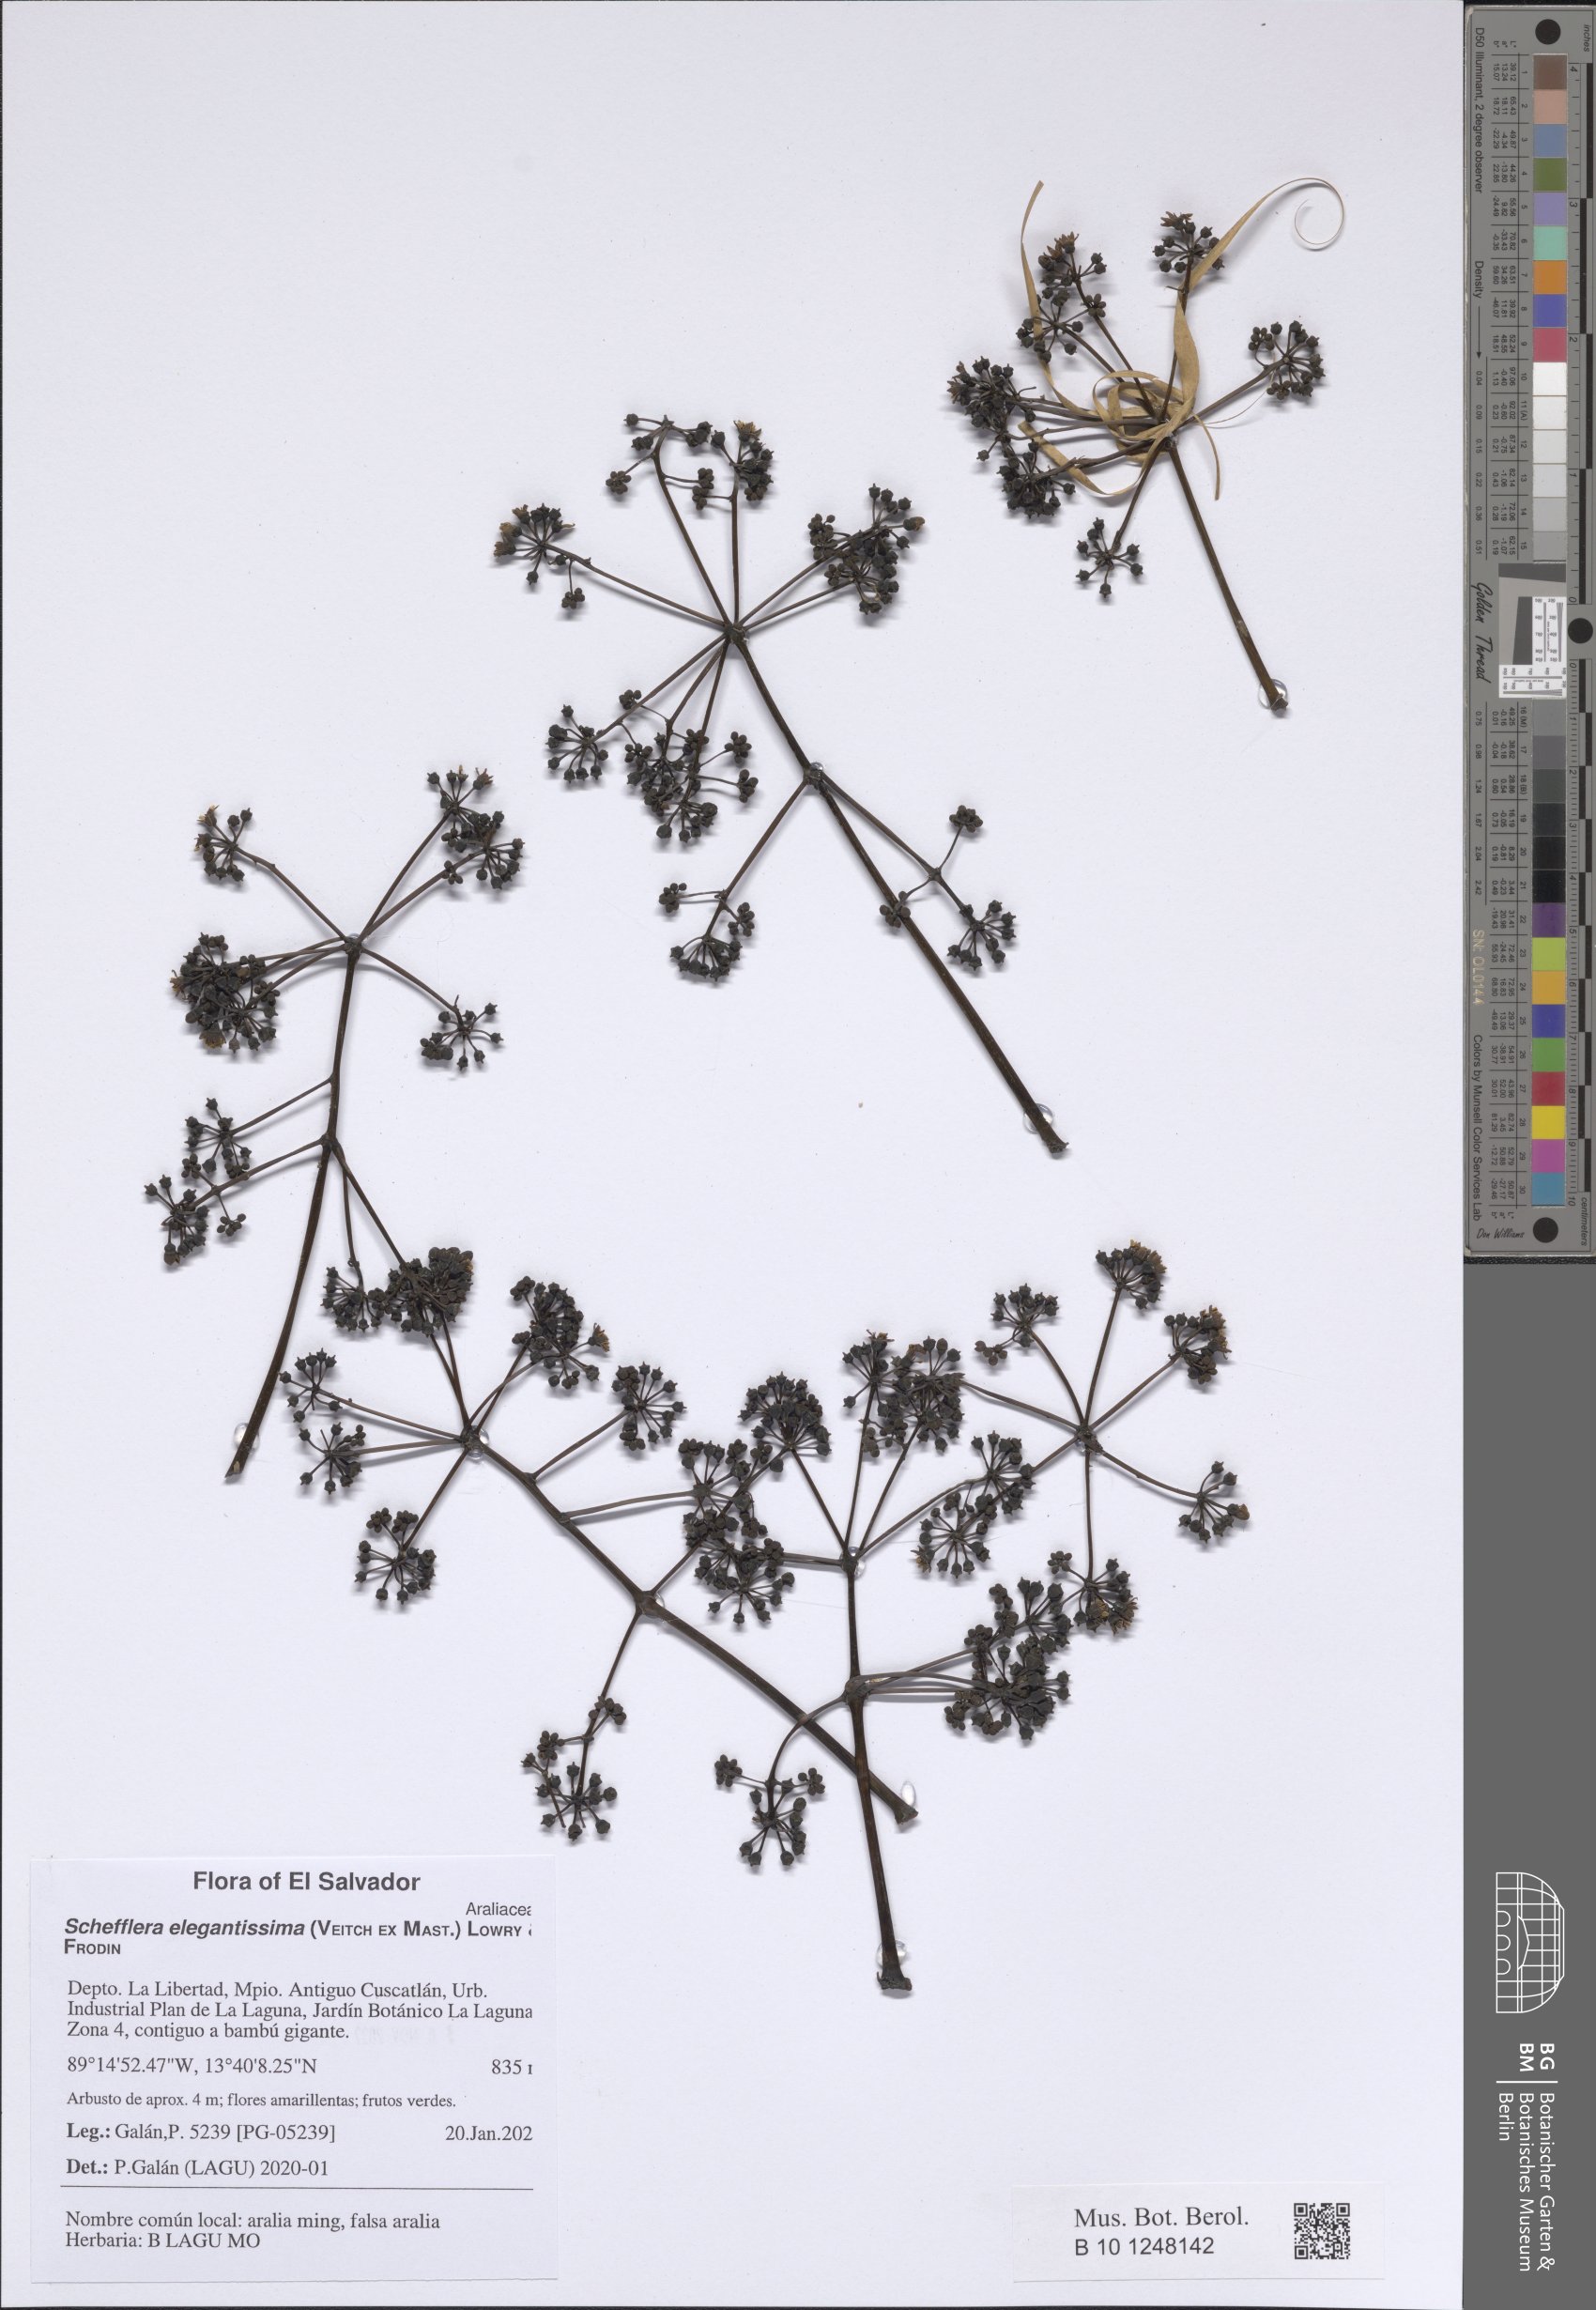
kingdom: Plantae
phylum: Tracheophyta
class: Magnoliopsida
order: Apiales
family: Araliaceae
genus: Plerandra
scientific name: Plerandra elegantissima
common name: False aralia
